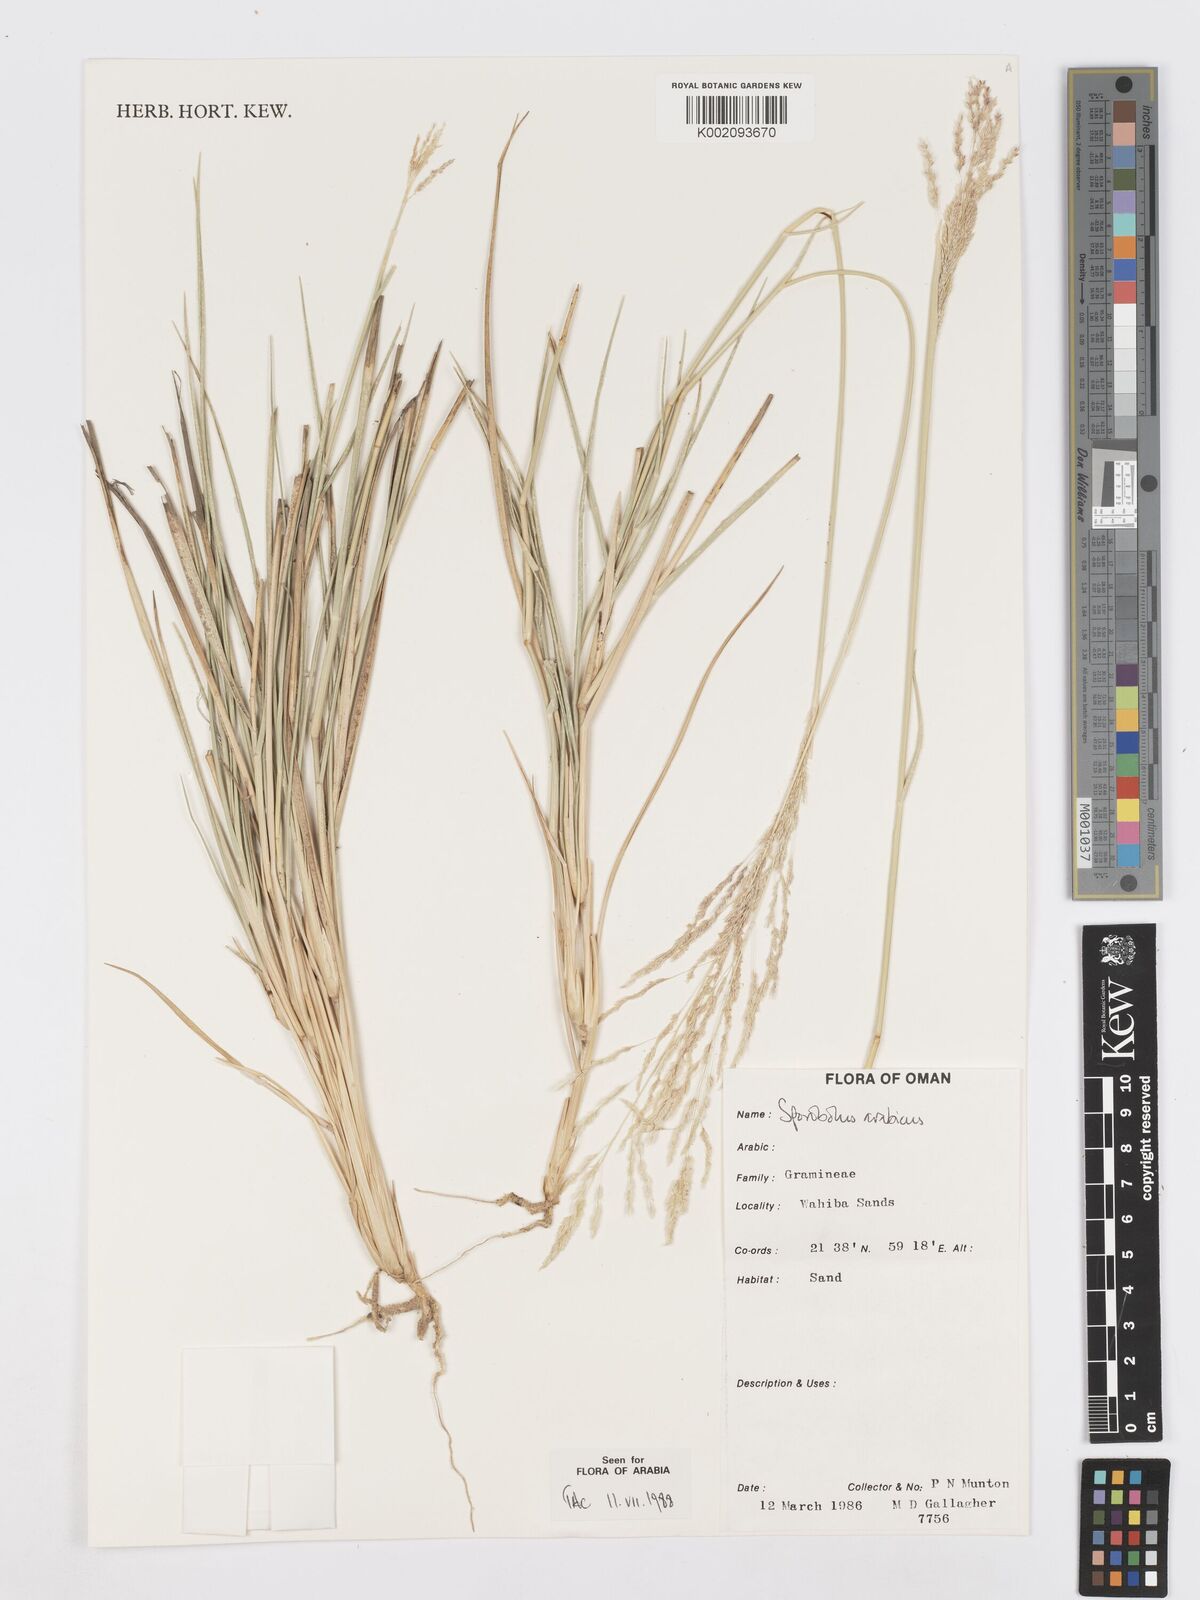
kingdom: Plantae
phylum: Tracheophyta
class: Liliopsida
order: Poales
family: Poaceae
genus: Sporobolus
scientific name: Sporobolus ioclados
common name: Pan dropseed
